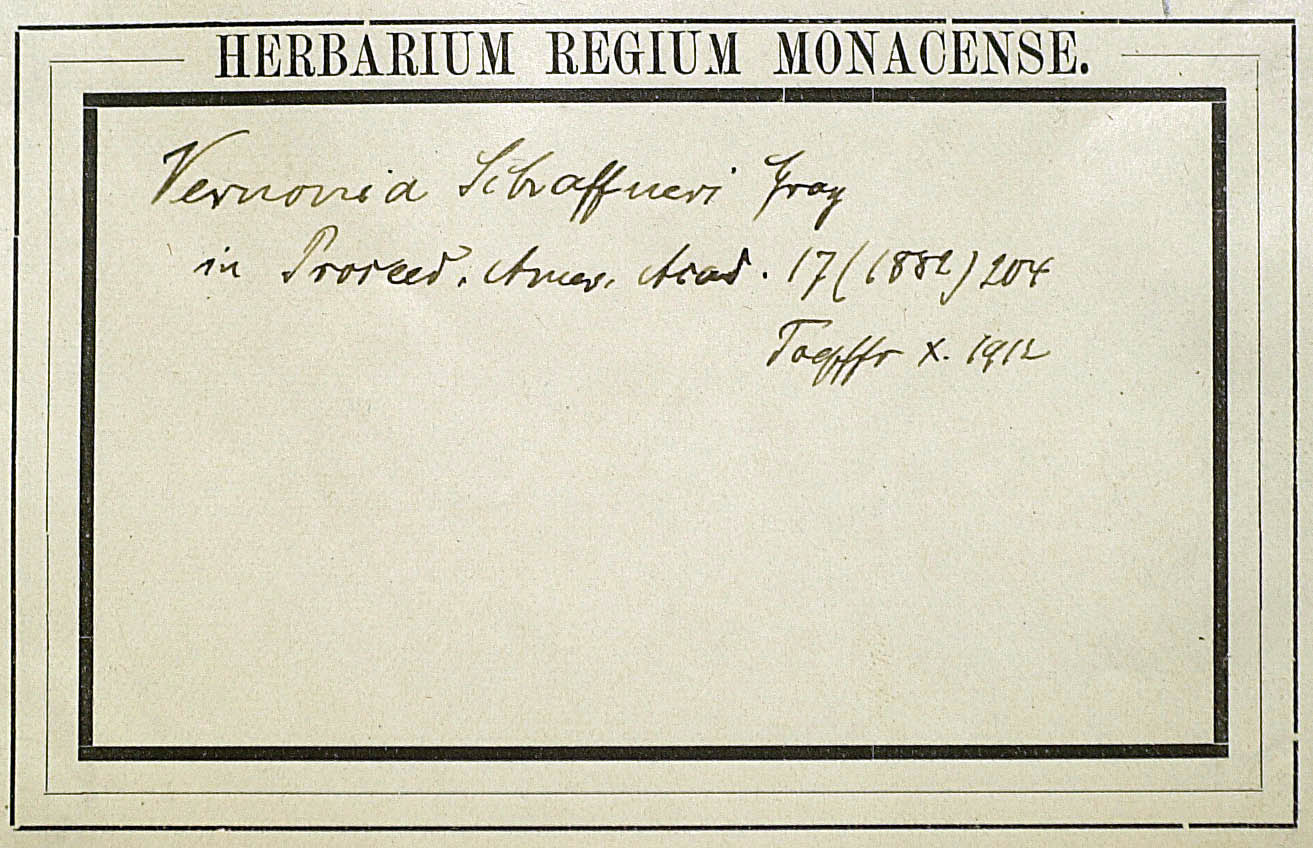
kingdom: Plantae
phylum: Tracheophyta
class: Magnoliopsida
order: Asterales
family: Asteraceae
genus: Vernonia
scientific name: Vernonia greggii
